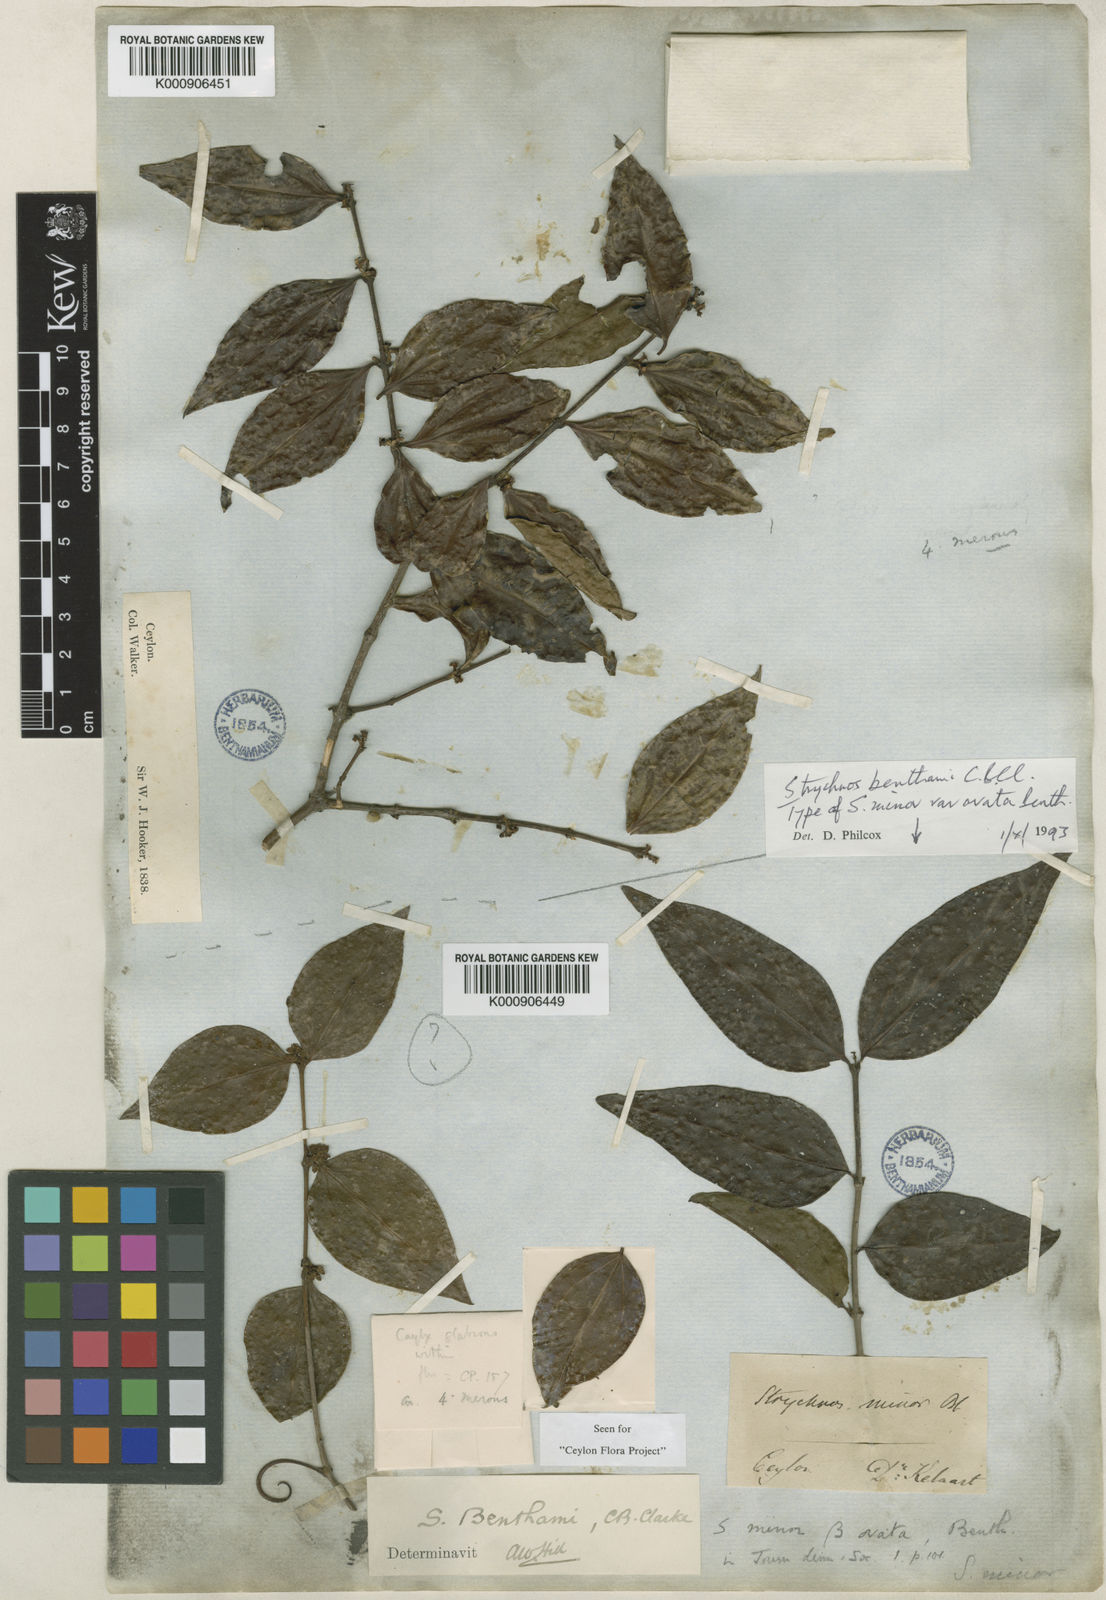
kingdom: Plantae
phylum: Tracheophyta
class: Magnoliopsida
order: Gentianales
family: Loganiaceae
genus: Strychnos
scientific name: Strychnos benthamii
